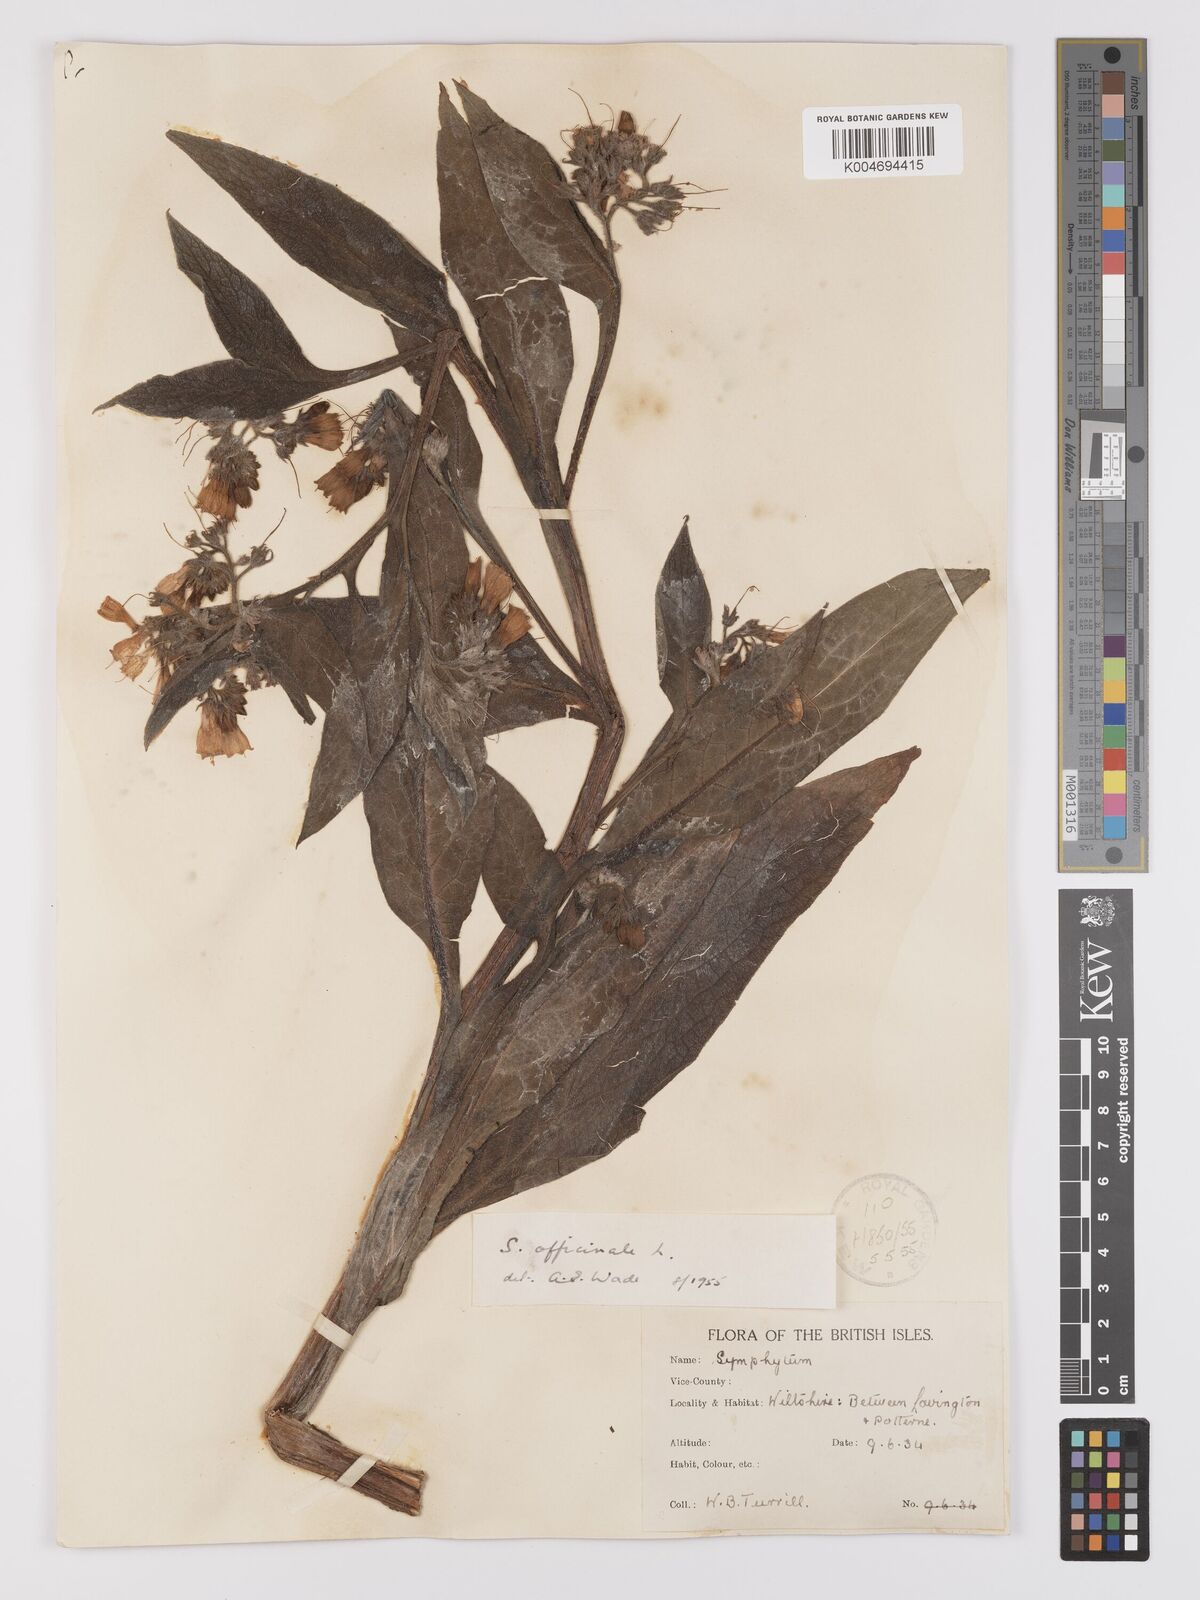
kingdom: Plantae
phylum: Tracheophyta
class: Magnoliopsida
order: Boraginales
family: Boraginaceae
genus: Symphytum
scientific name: Symphytum officinale
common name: Common comfrey
